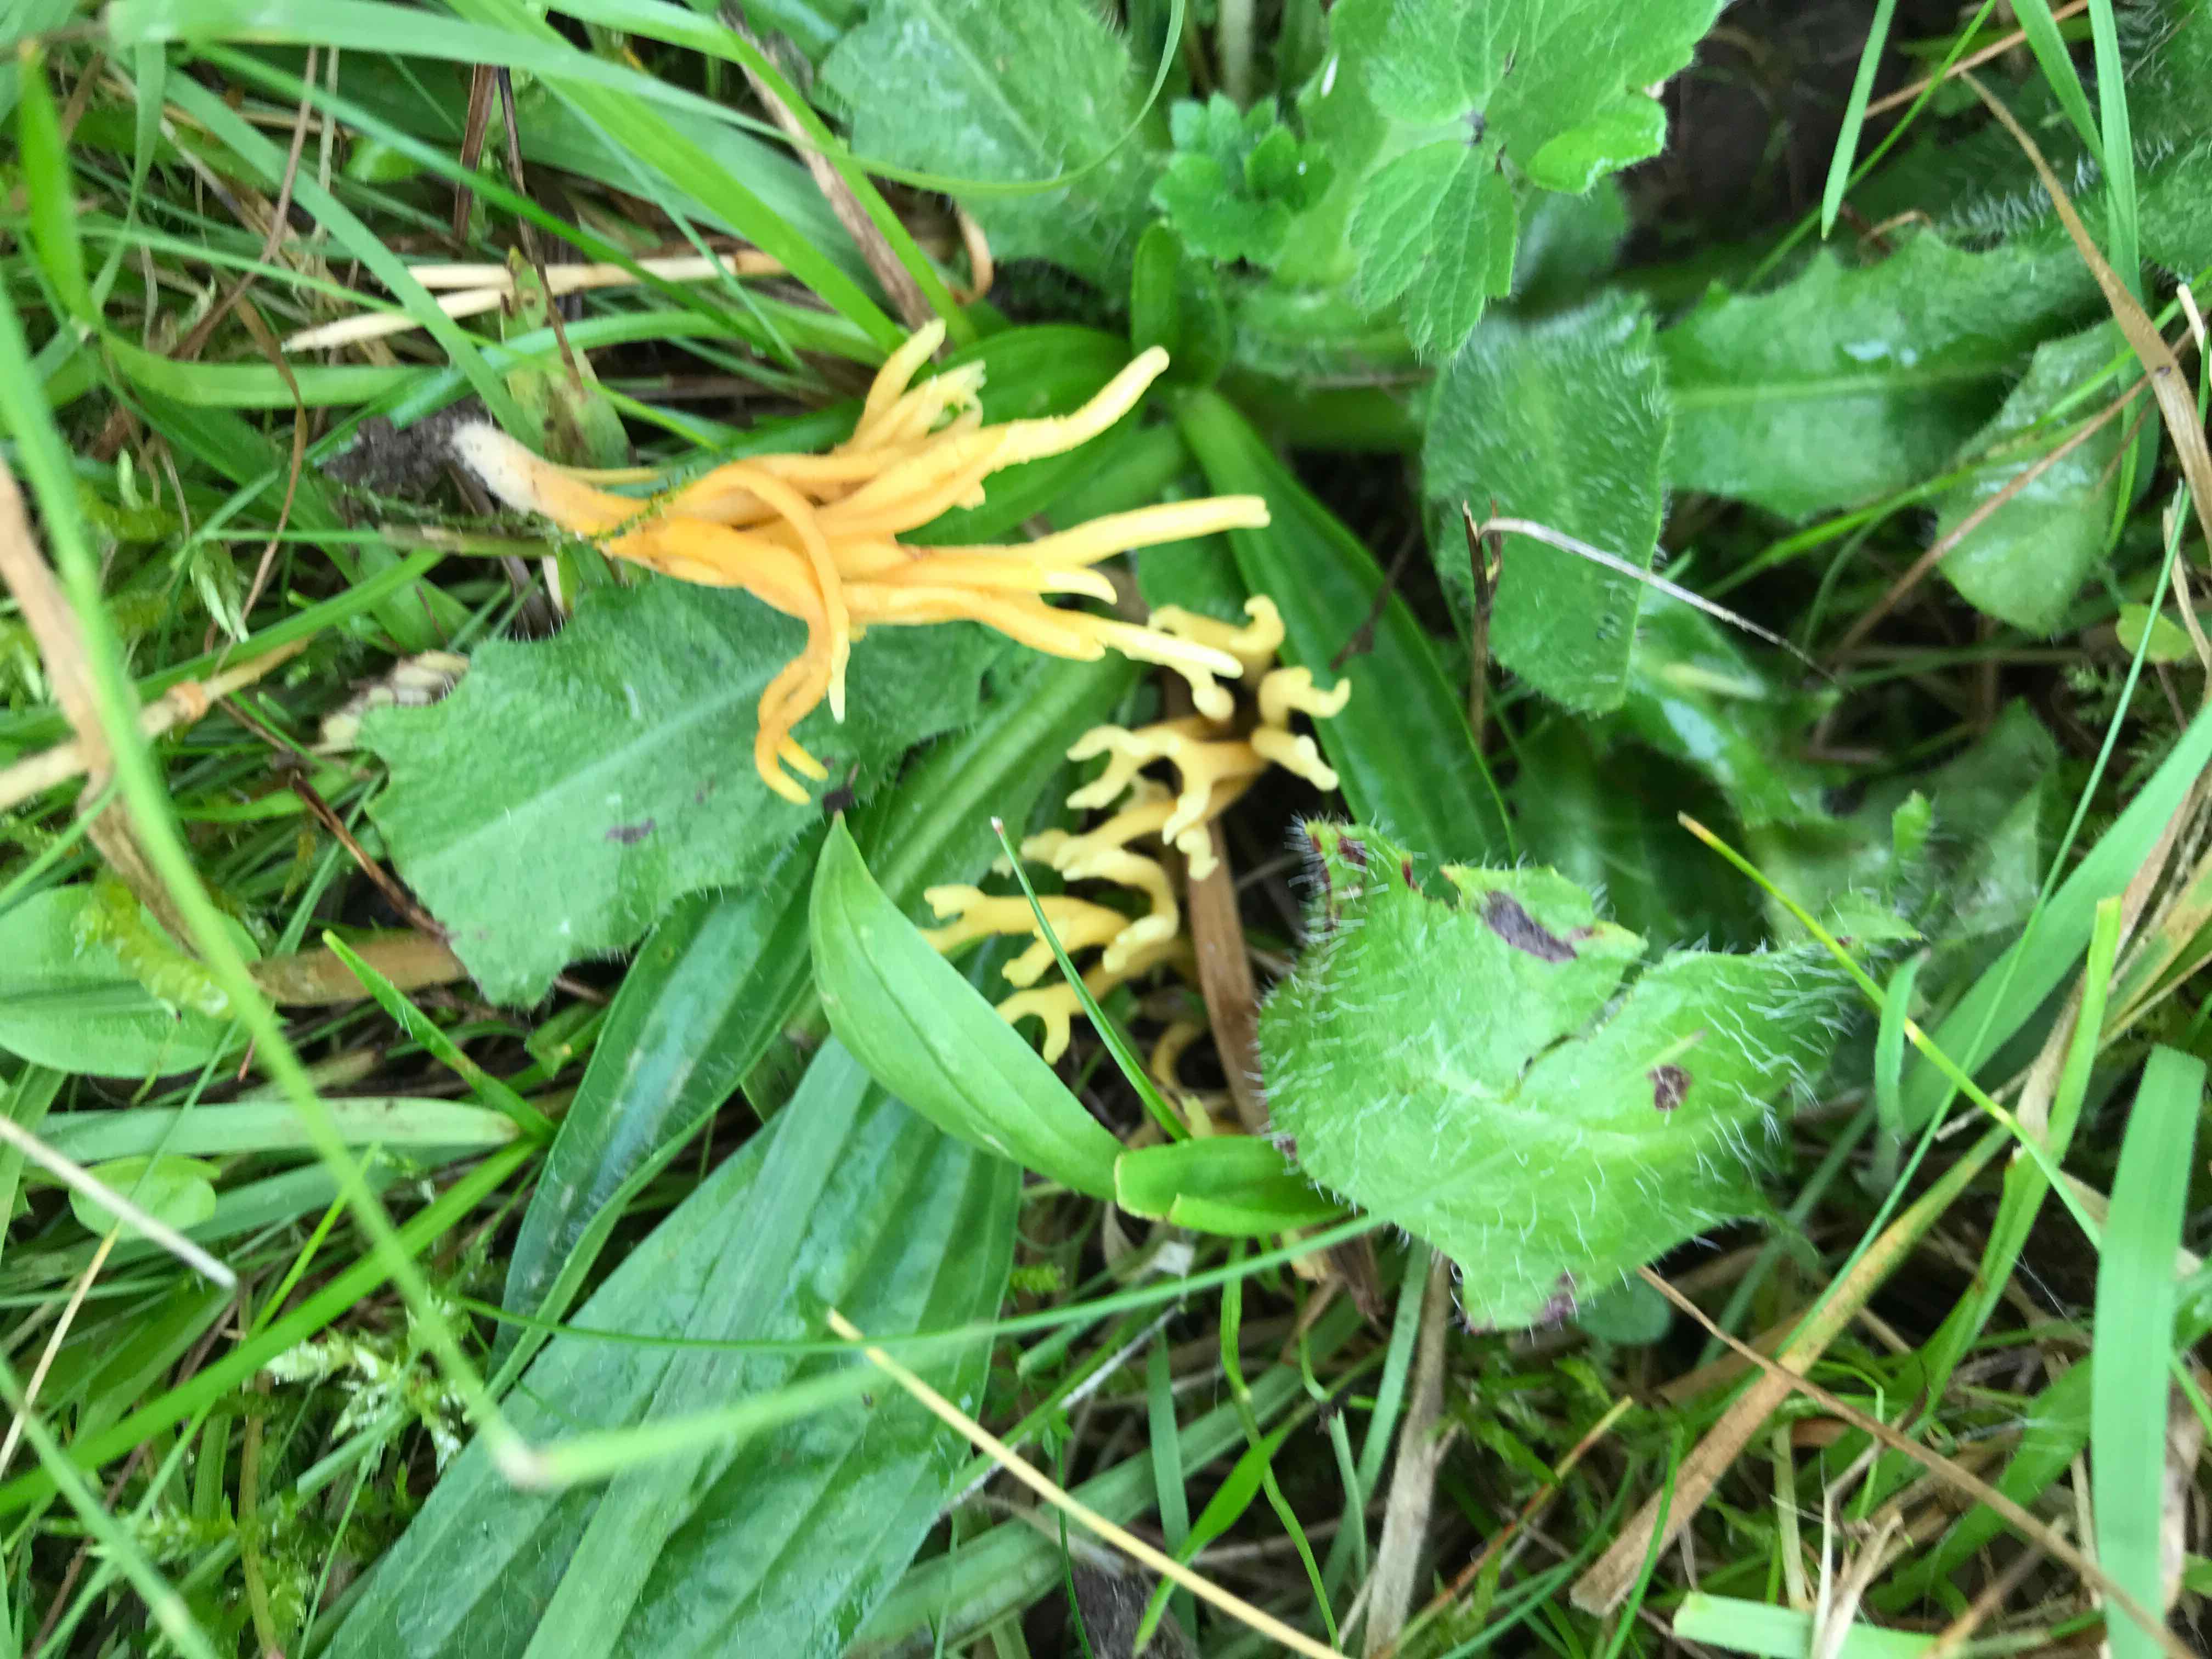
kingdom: Fungi
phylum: Basidiomycota
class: Agaricomycetes
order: Agaricales
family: Clavariaceae
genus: Clavulinopsis
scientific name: Clavulinopsis corniculata
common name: eng-køllesvamp
